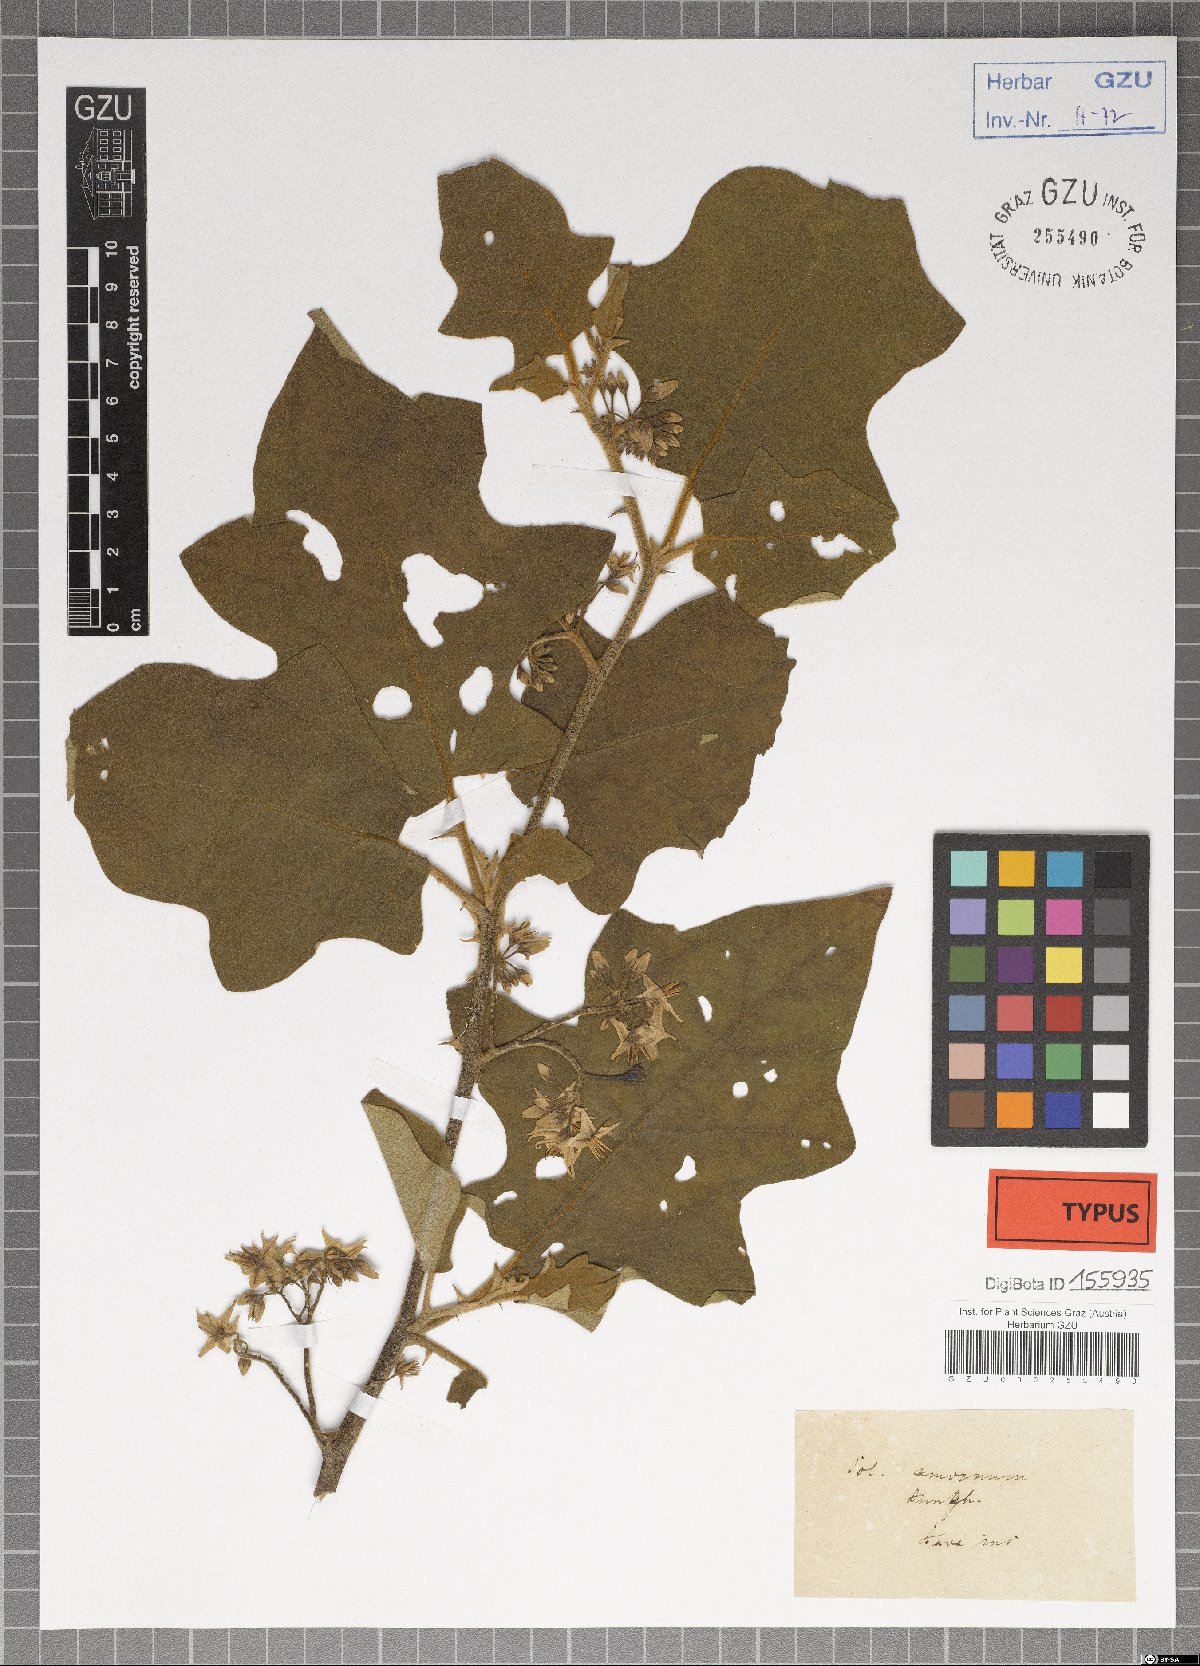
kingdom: Plantae
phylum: Tracheophyta
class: Magnoliopsida
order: Solanales
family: Solanaceae
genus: Solanum
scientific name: Solanum torvum
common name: Turkey berry
